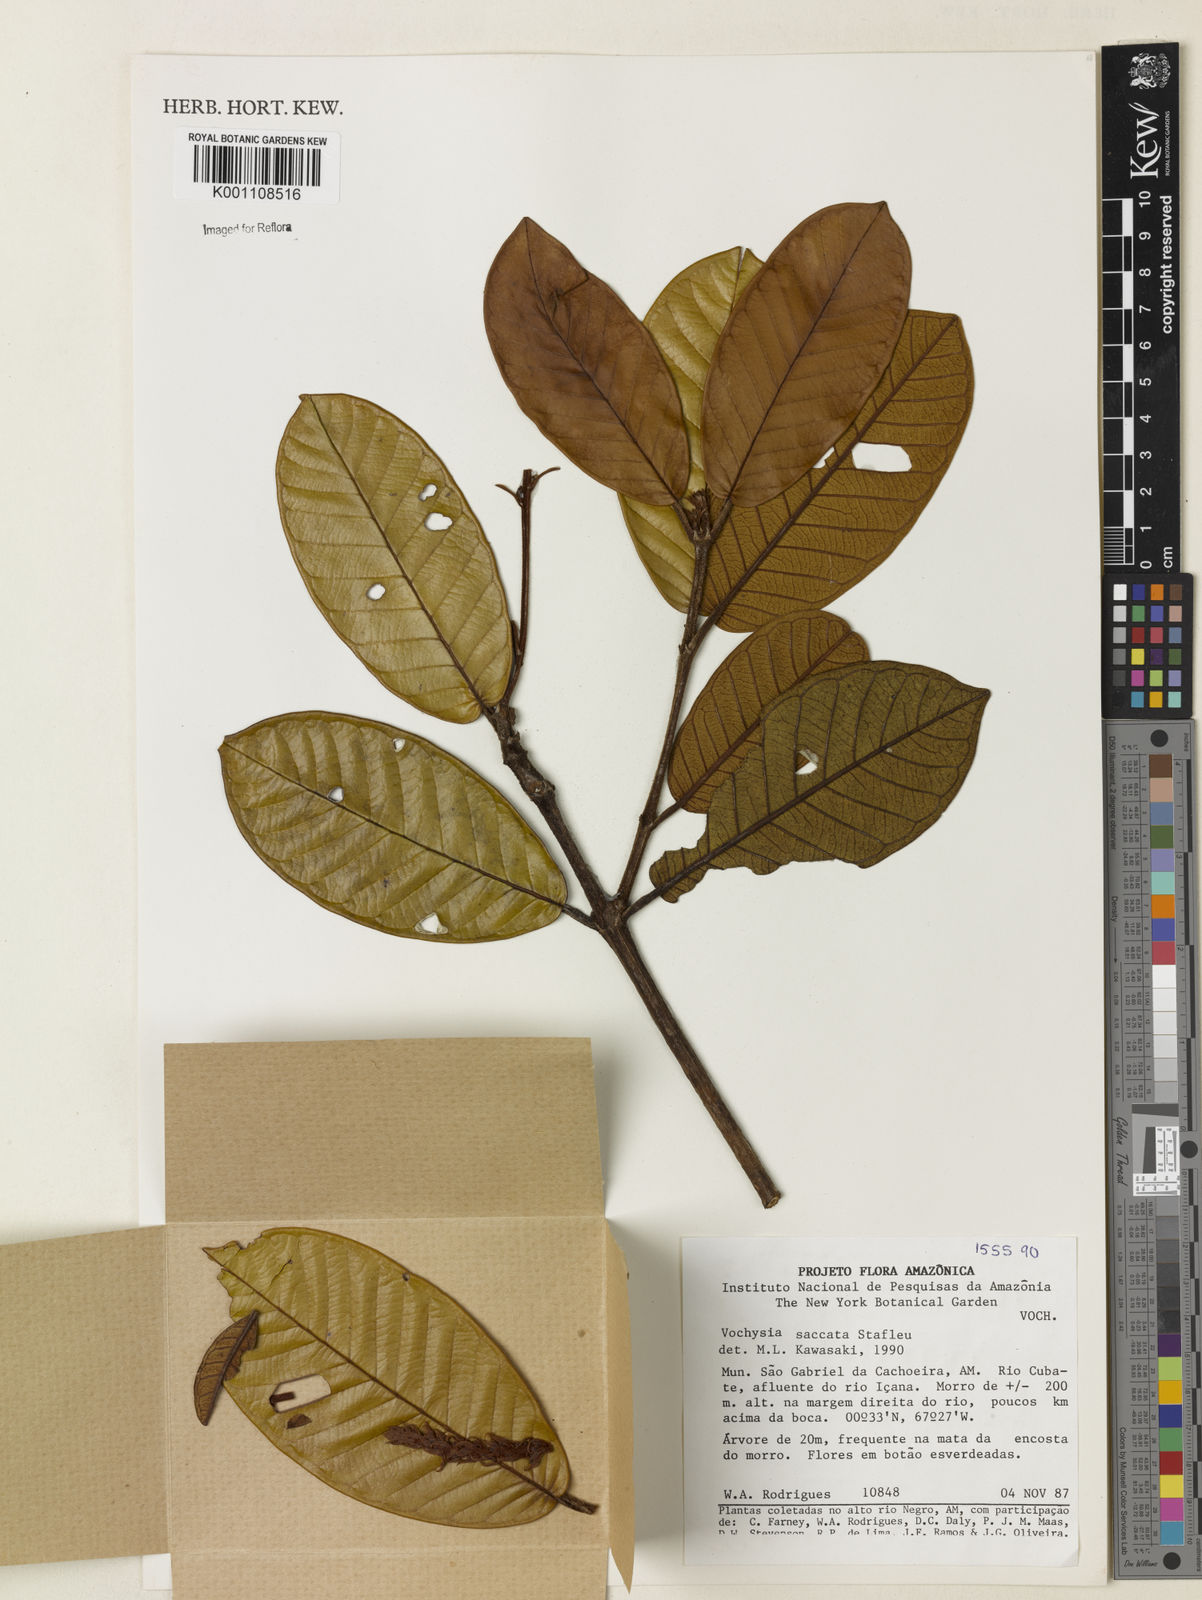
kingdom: Plantae
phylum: Tracheophyta
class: Magnoliopsida
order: Myrtales
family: Vochysiaceae
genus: Vochysia
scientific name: Vochysia saccata
